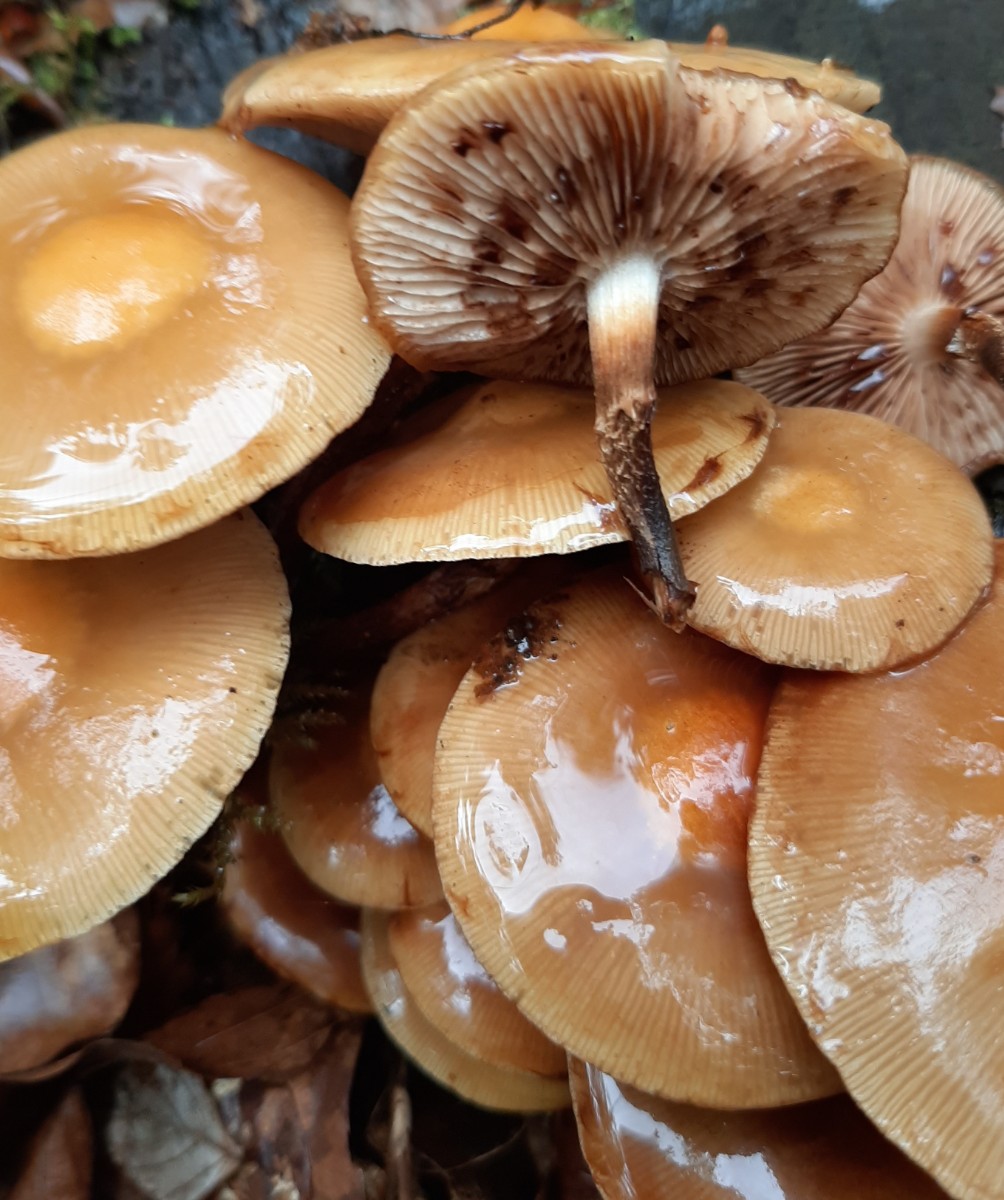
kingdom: Fungi
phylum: Basidiomycota
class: Agaricomycetes
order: Agaricales
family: Strophariaceae
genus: Kuehneromyces
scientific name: Kuehneromyces mutabilis
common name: foranderlig skælhat
